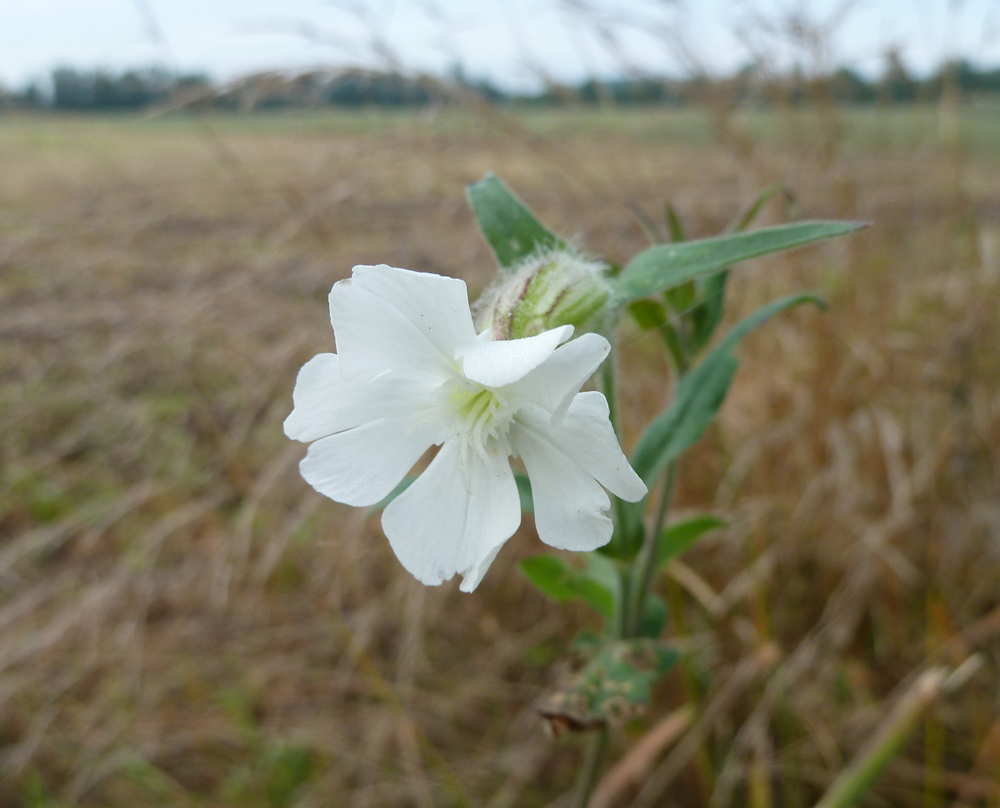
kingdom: Plantae
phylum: Tracheophyta
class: Magnoliopsida
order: Caryophyllales
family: Caryophyllaceae
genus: Silene
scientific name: Silene latifolia
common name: White campion
